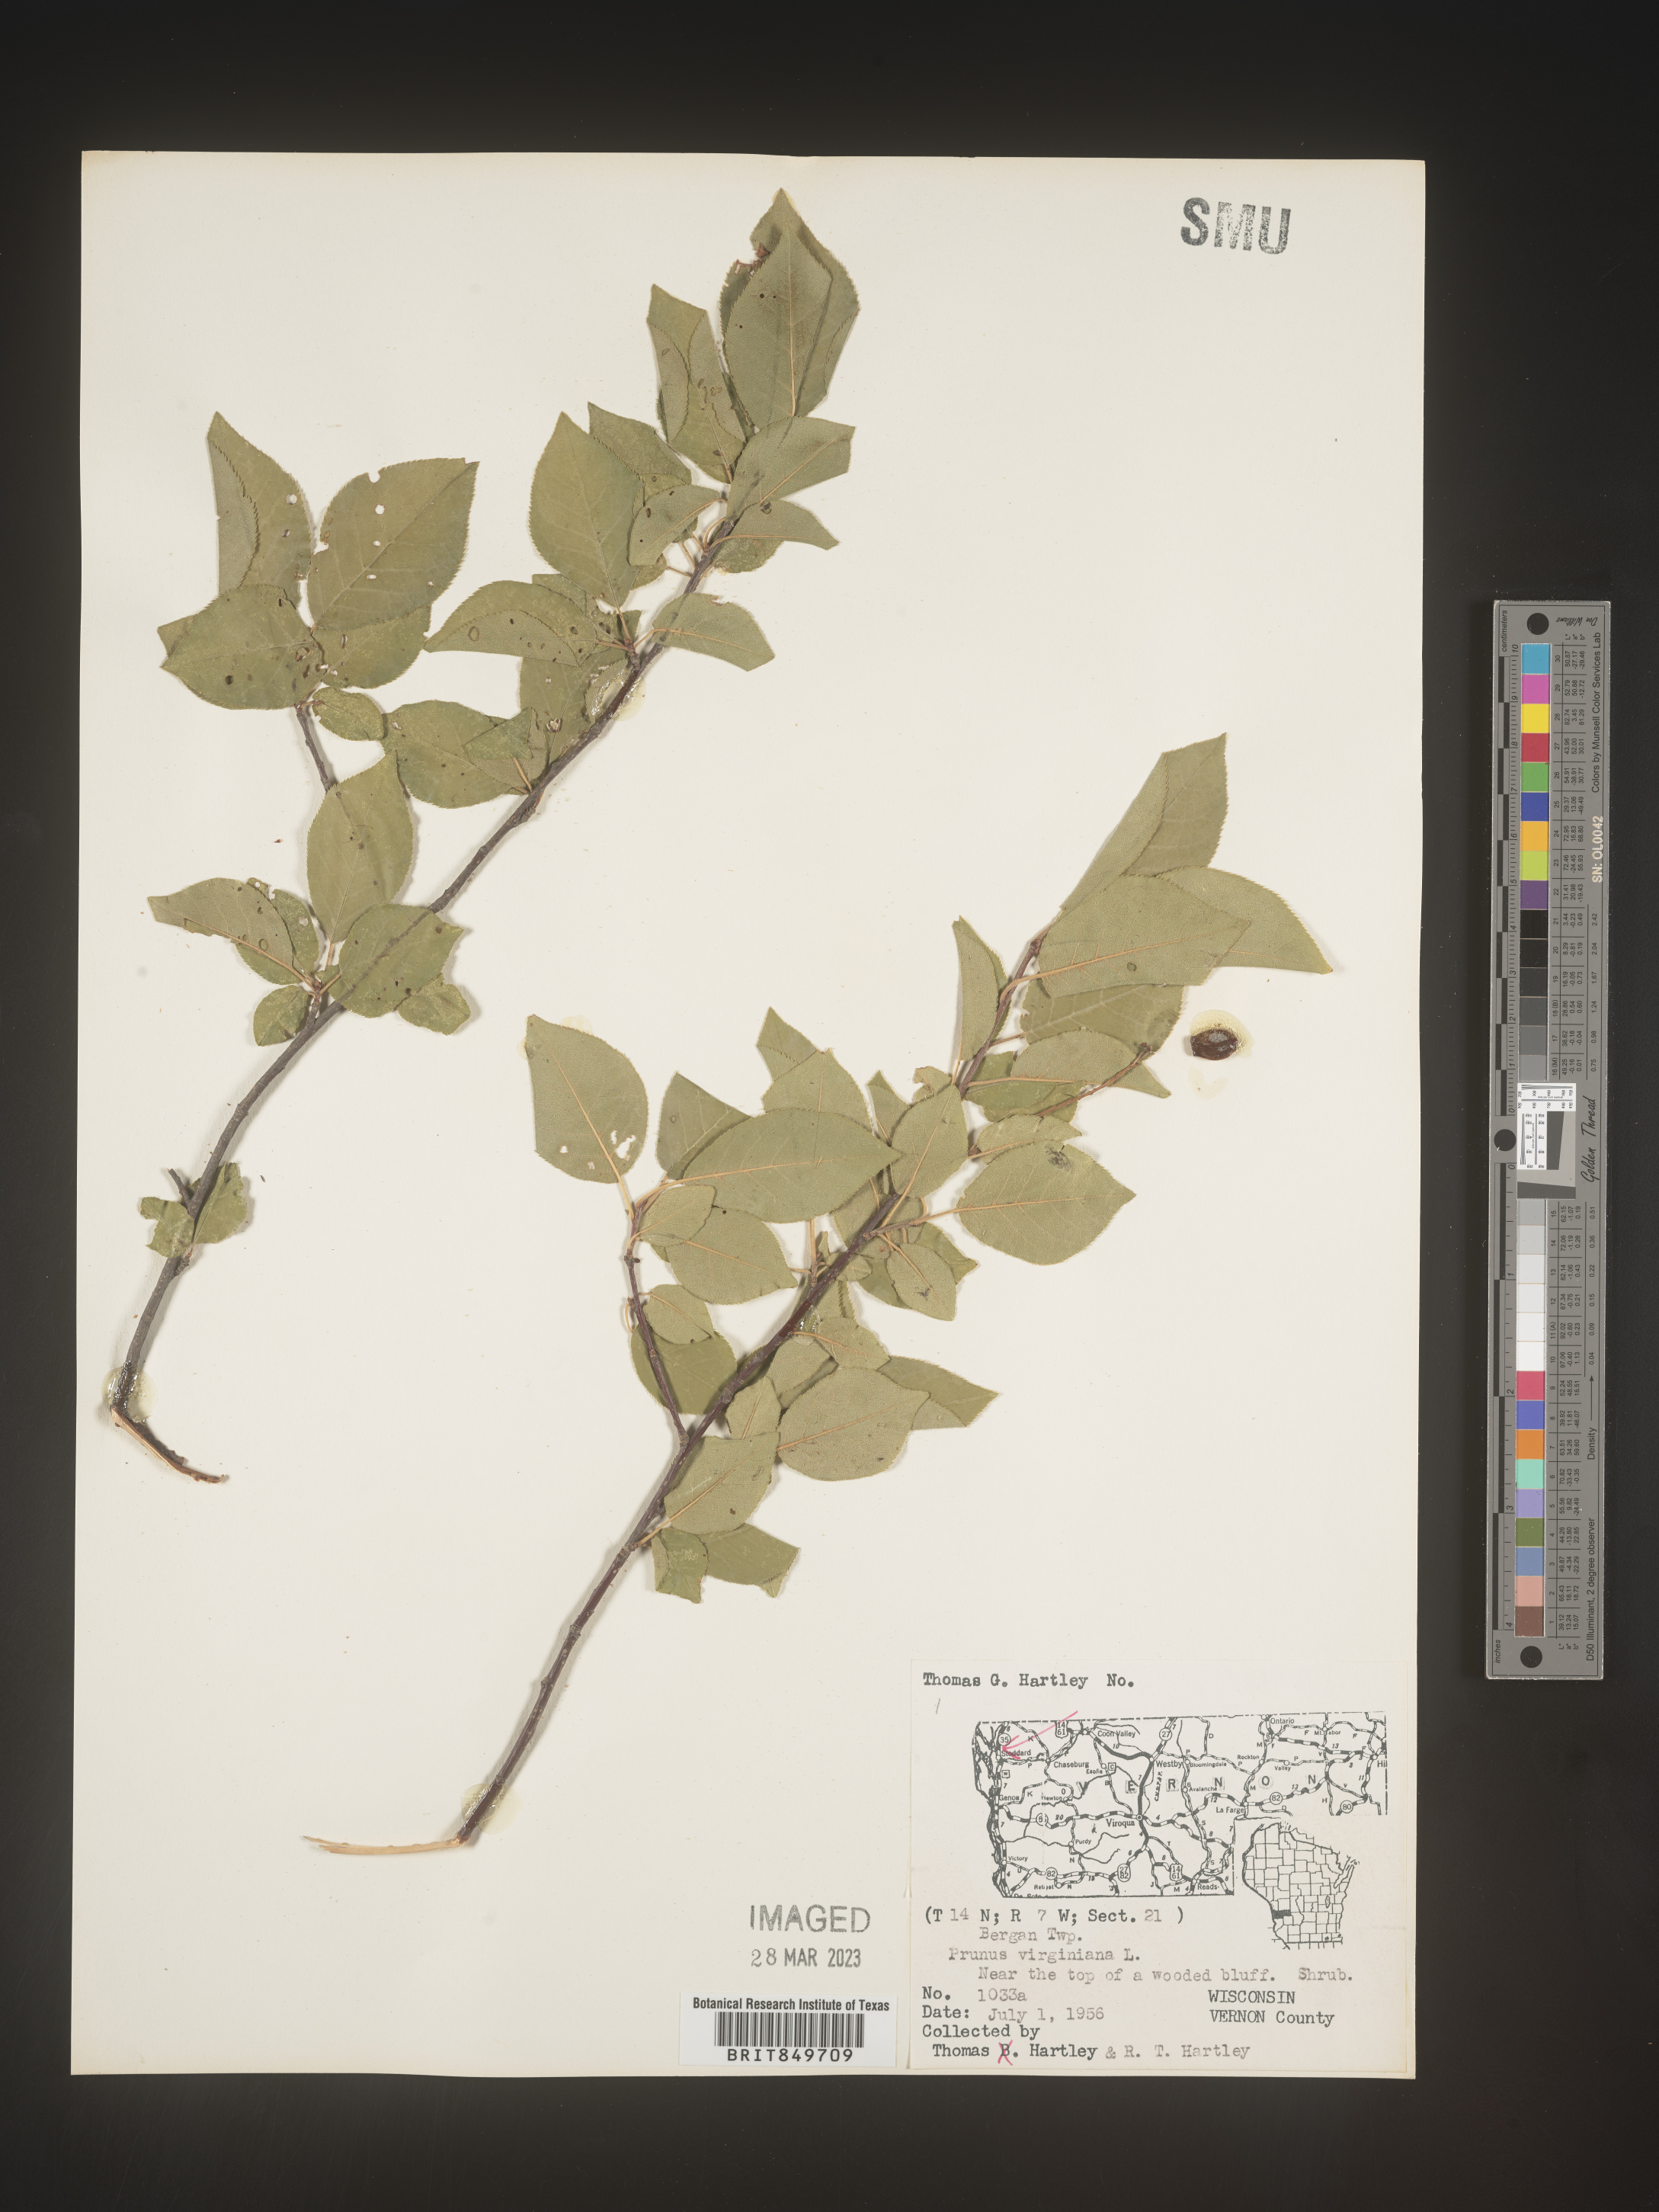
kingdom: Plantae
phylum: Tracheophyta
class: Magnoliopsida
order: Rosales
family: Rosaceae
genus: Prunus
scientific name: Prunus virginiana
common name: Chokecherry
